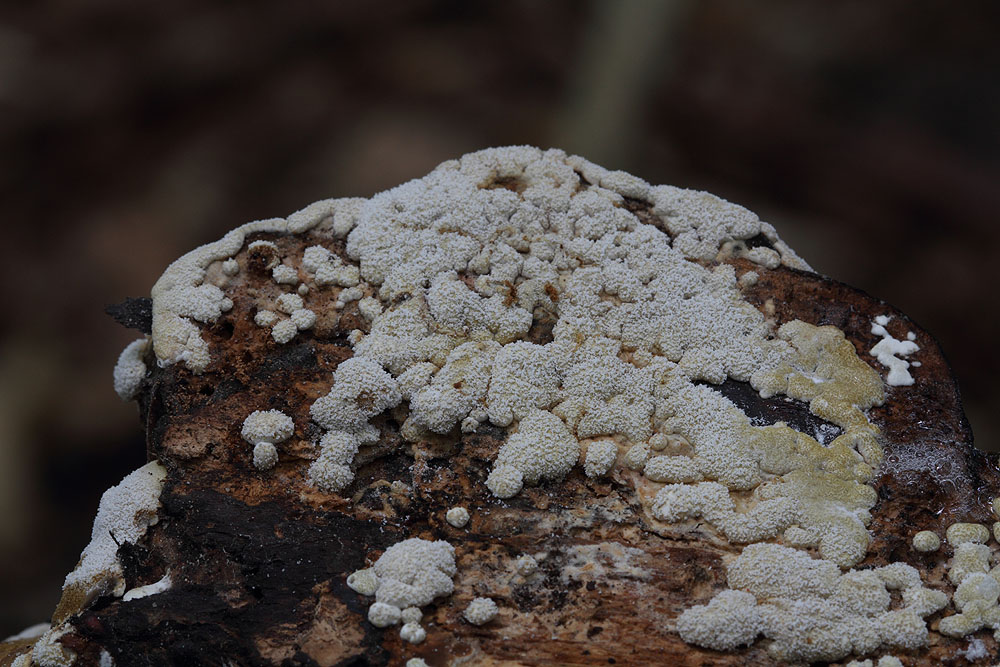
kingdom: Fungi
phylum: Ascomycota
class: Sordariomycetes
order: Hypocreales
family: Hypocreaceae
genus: Trichoderma
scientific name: Trichoderma pulvinatum
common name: snyltende kødkerne
